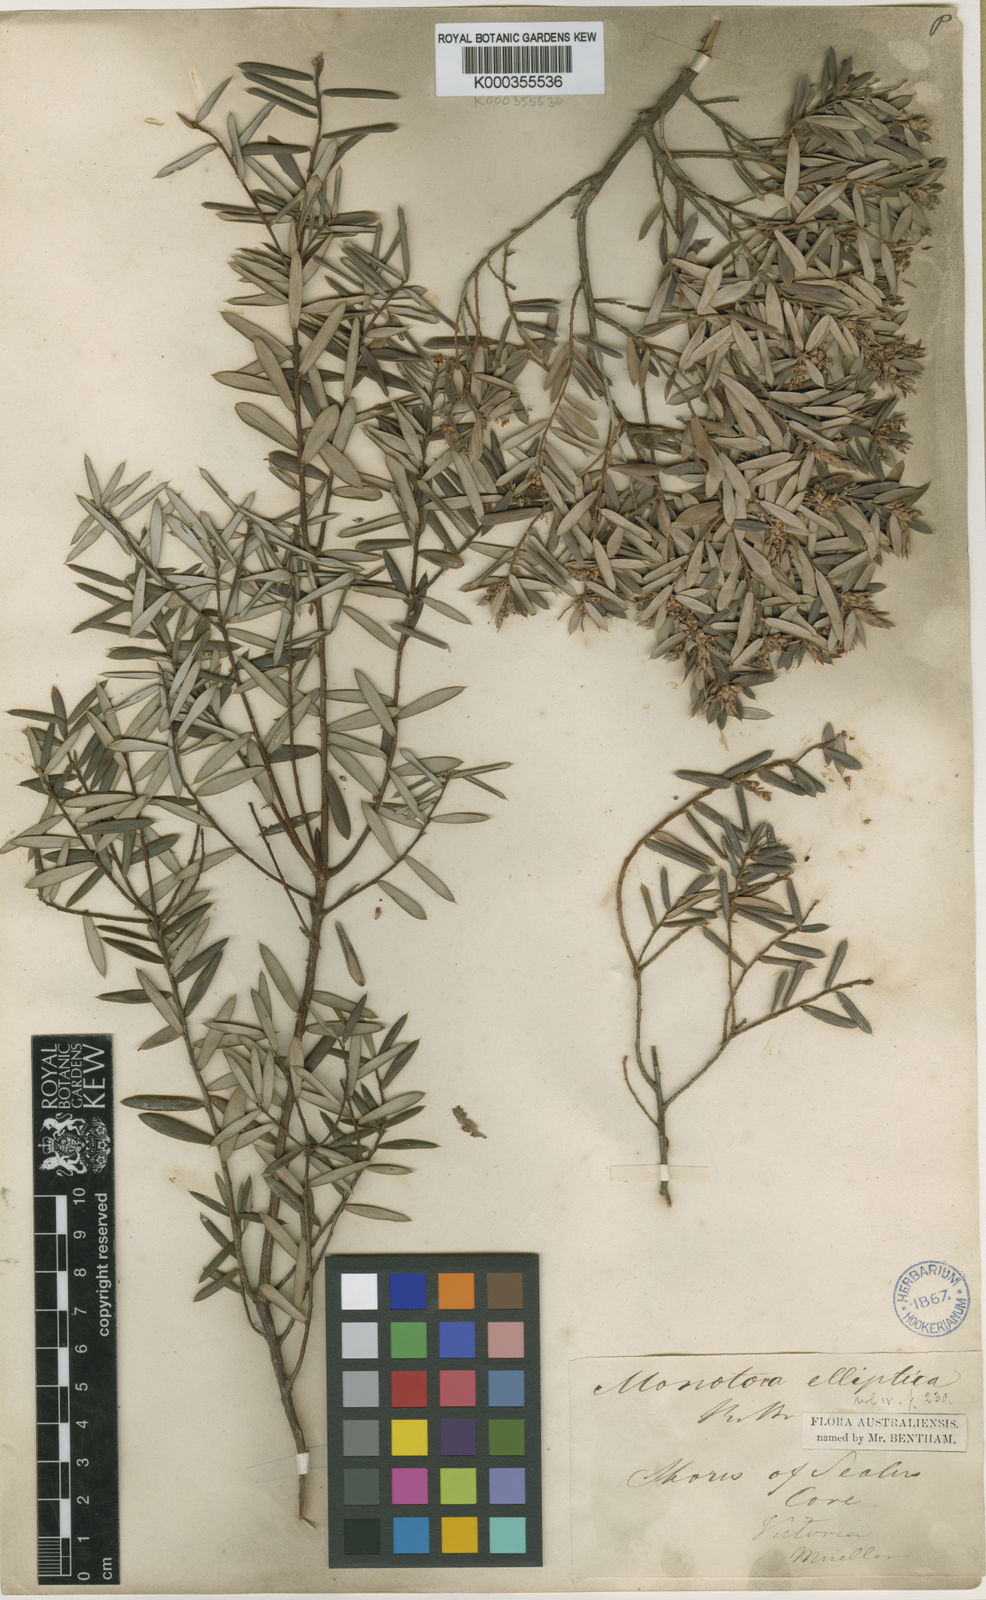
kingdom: Plantae
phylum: Tracheophyta
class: Magnoliopsida
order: Ericales
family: Ericaceae
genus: Monotoca
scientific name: Monotoca elliptica
